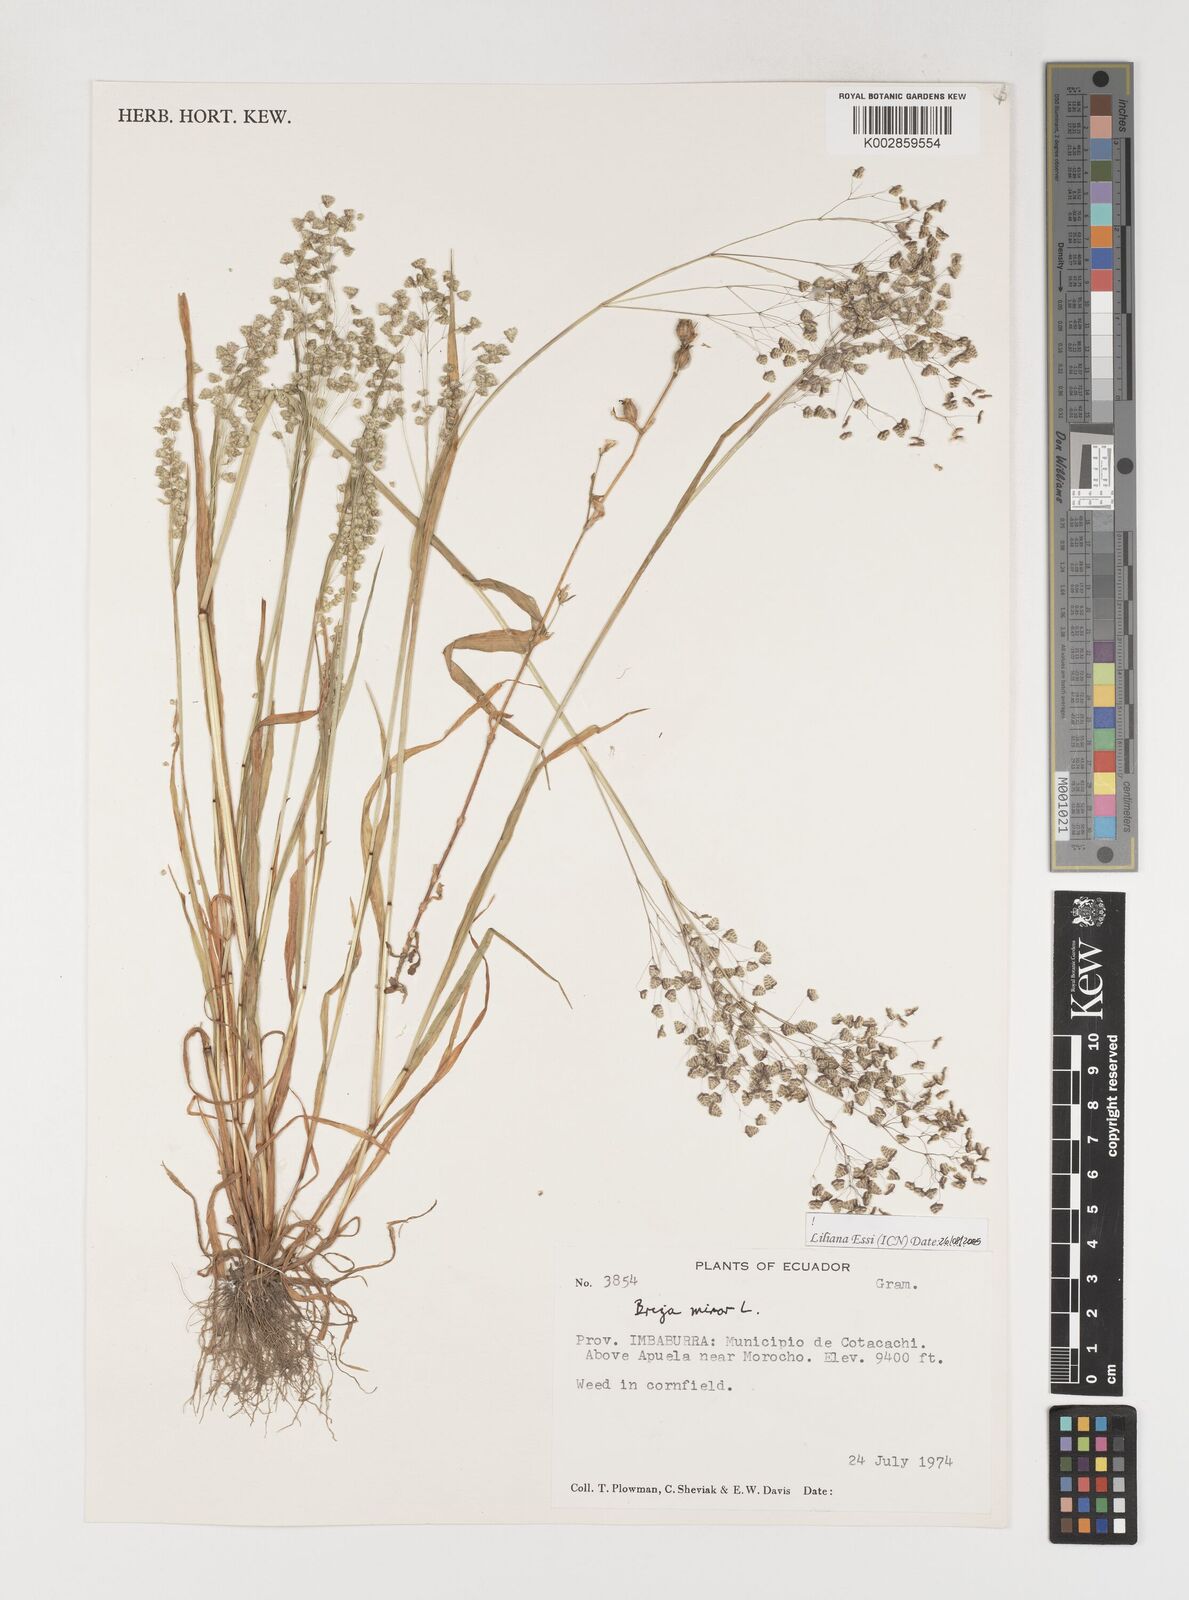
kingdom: Plantae
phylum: Tracheophyta
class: Liliopsida
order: Poales
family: Poaceae
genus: Briza
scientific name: Briza minor
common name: Lesser quaking-grass
